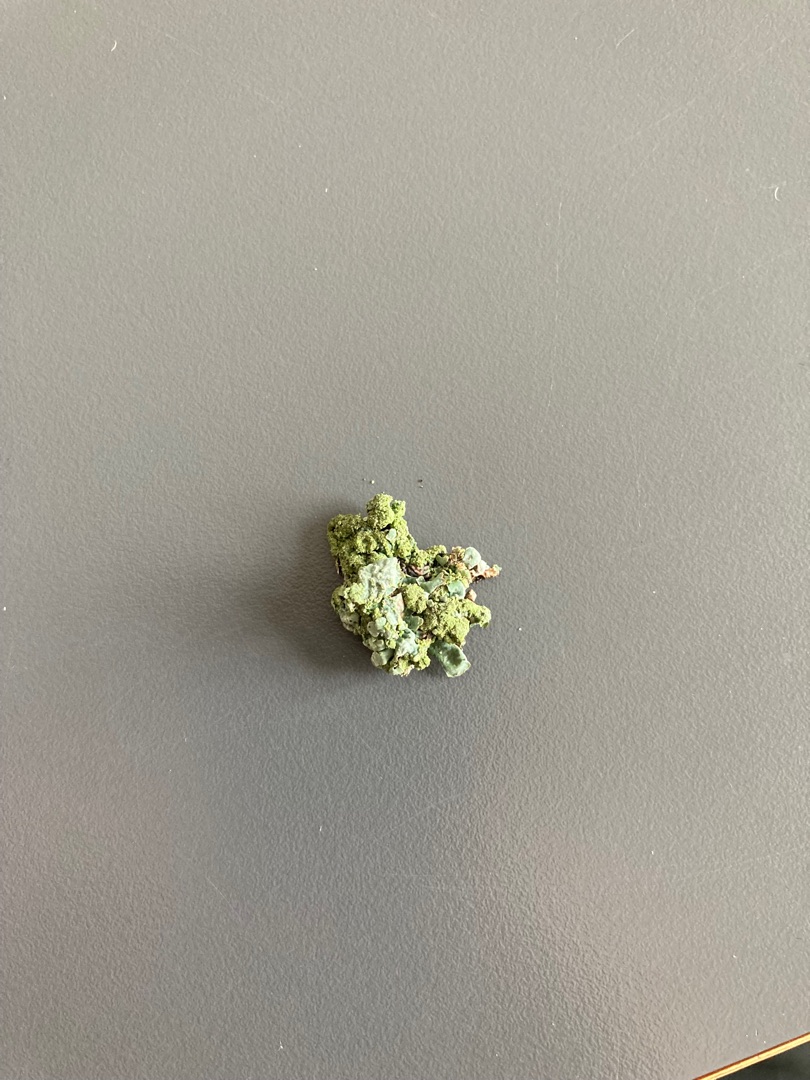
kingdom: Fungi
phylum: Ascomycota
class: Lecanoromycetes
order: Lecanorales
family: Parmeliaceae
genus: Parmelia
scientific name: Parmelia sulcata
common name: Rynket skållav
